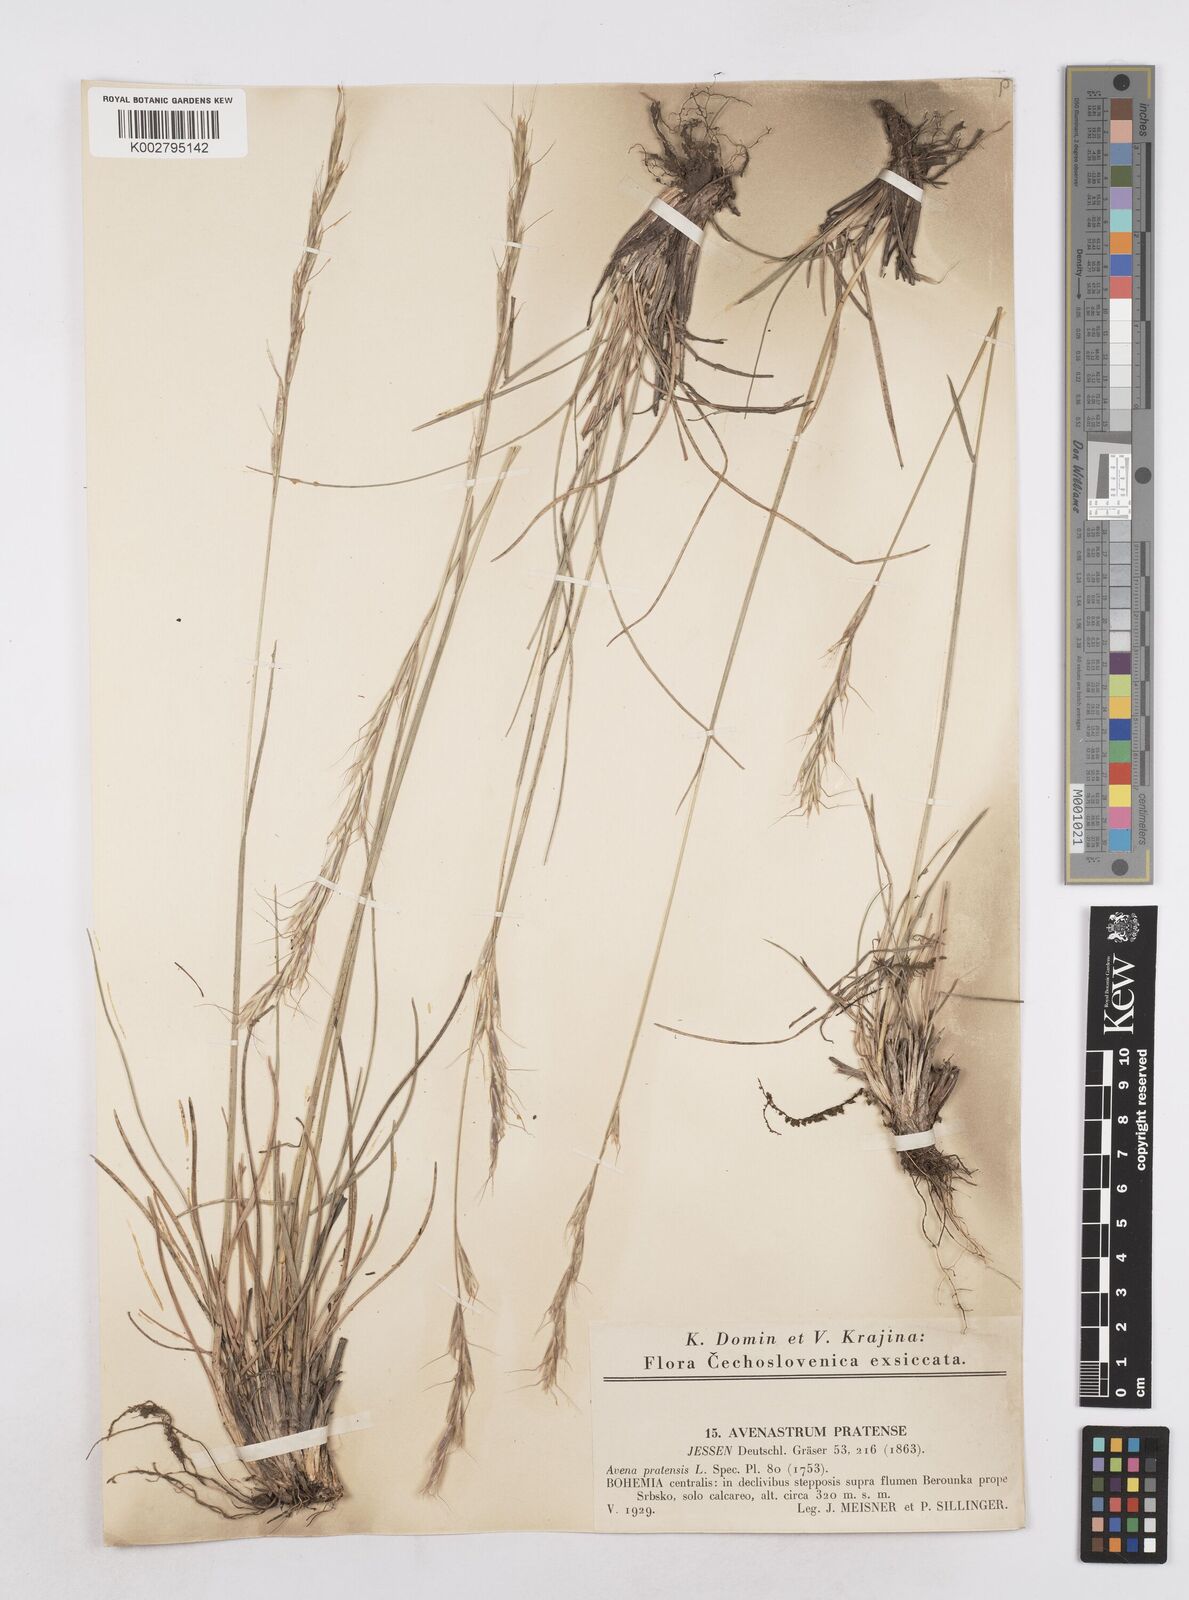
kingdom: Plantae
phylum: Tracheophyta
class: Liliopsida
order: Poales
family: Poaceae
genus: Helictochloa
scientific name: Helictochloa pratensis
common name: Meadow oat grass
